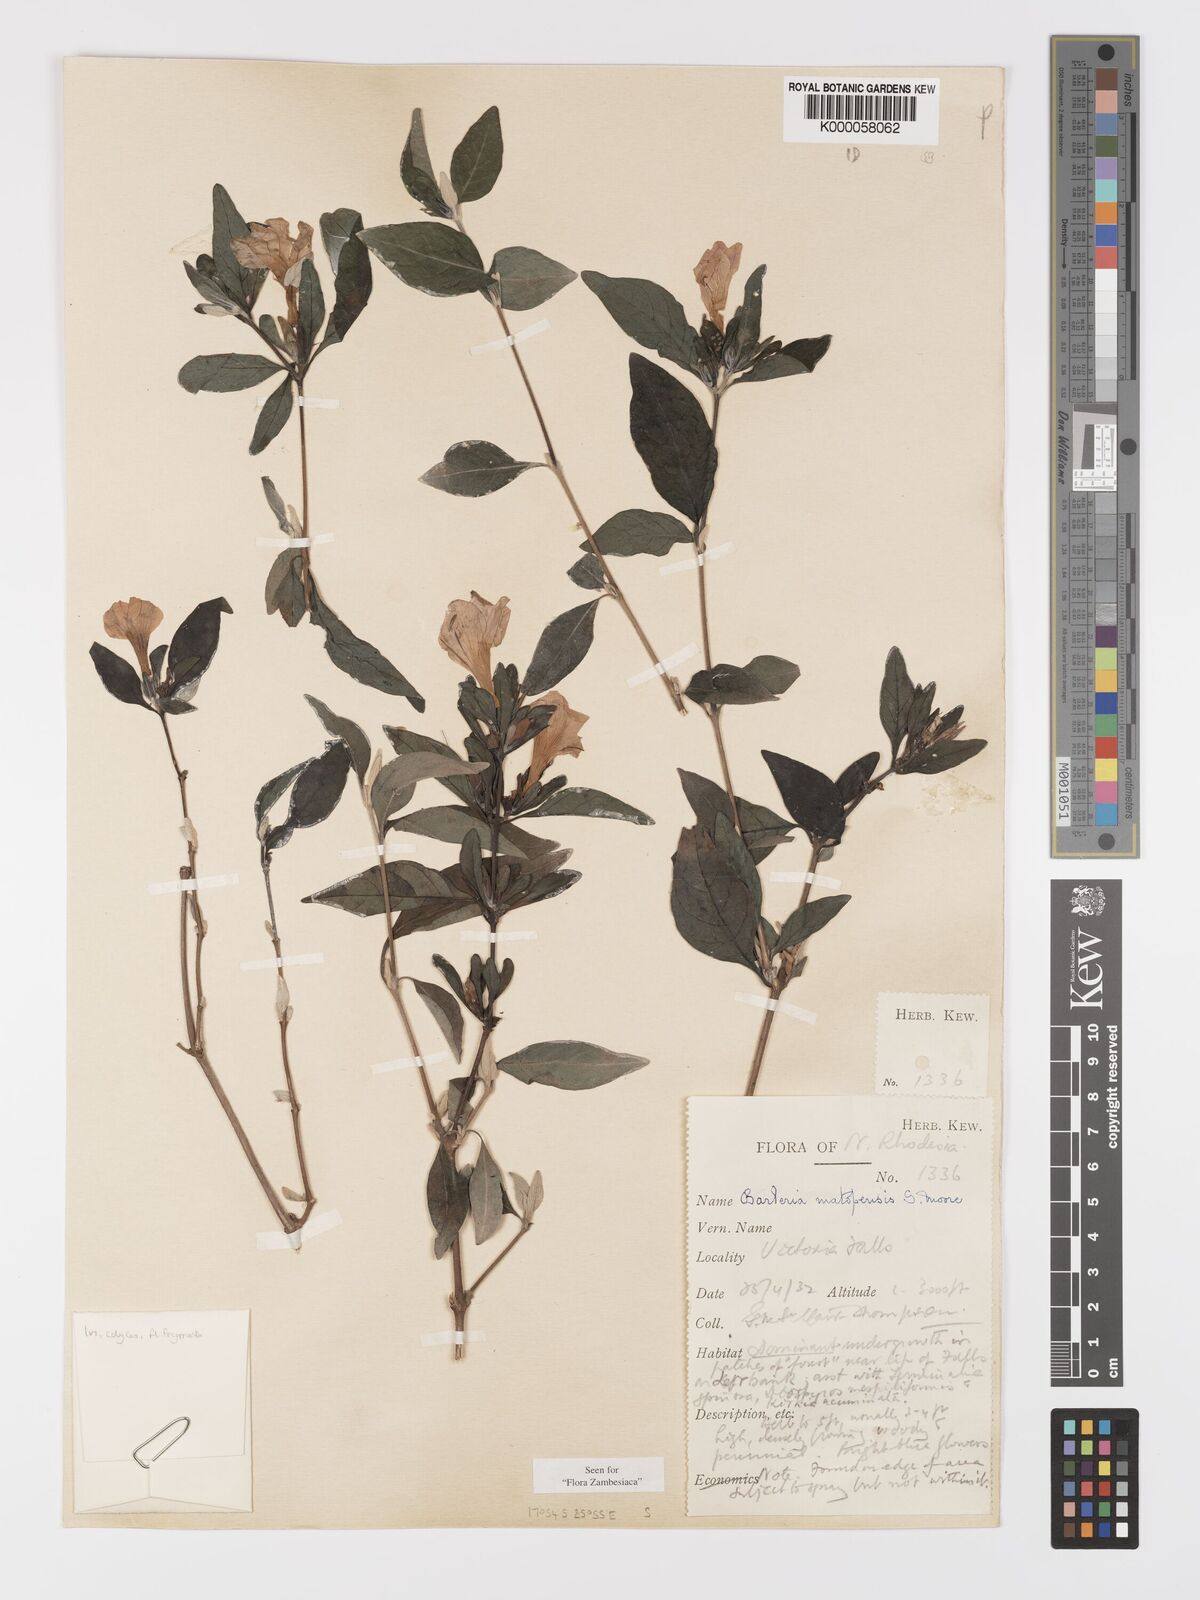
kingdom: Plantae
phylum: Tracheophyta
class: Magnoliopsida
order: Lamiales
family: Acanthaceae
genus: Barleria
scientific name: Barleria matopensis
